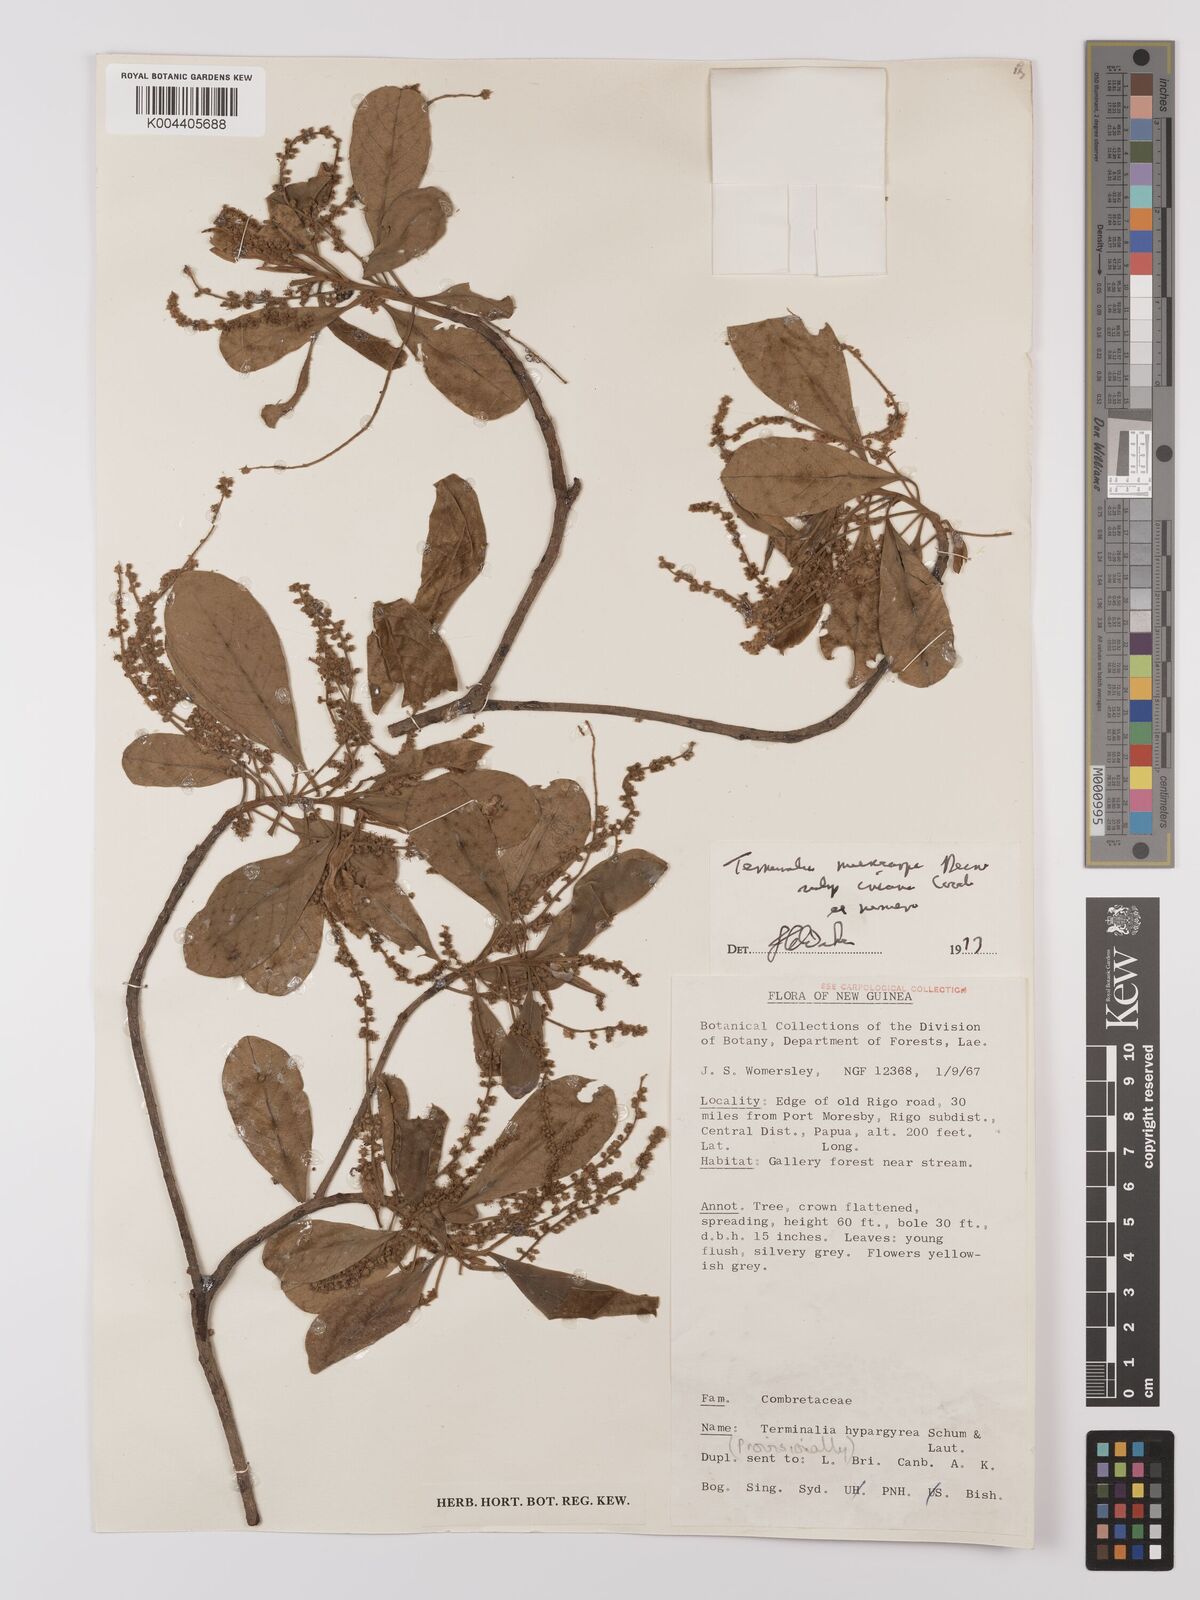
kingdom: Plantae
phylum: Tracheophyta
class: Magnoliopsida
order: Myrtales
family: Combretaceae
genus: Terminalia
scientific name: Terminalia microcarpa
